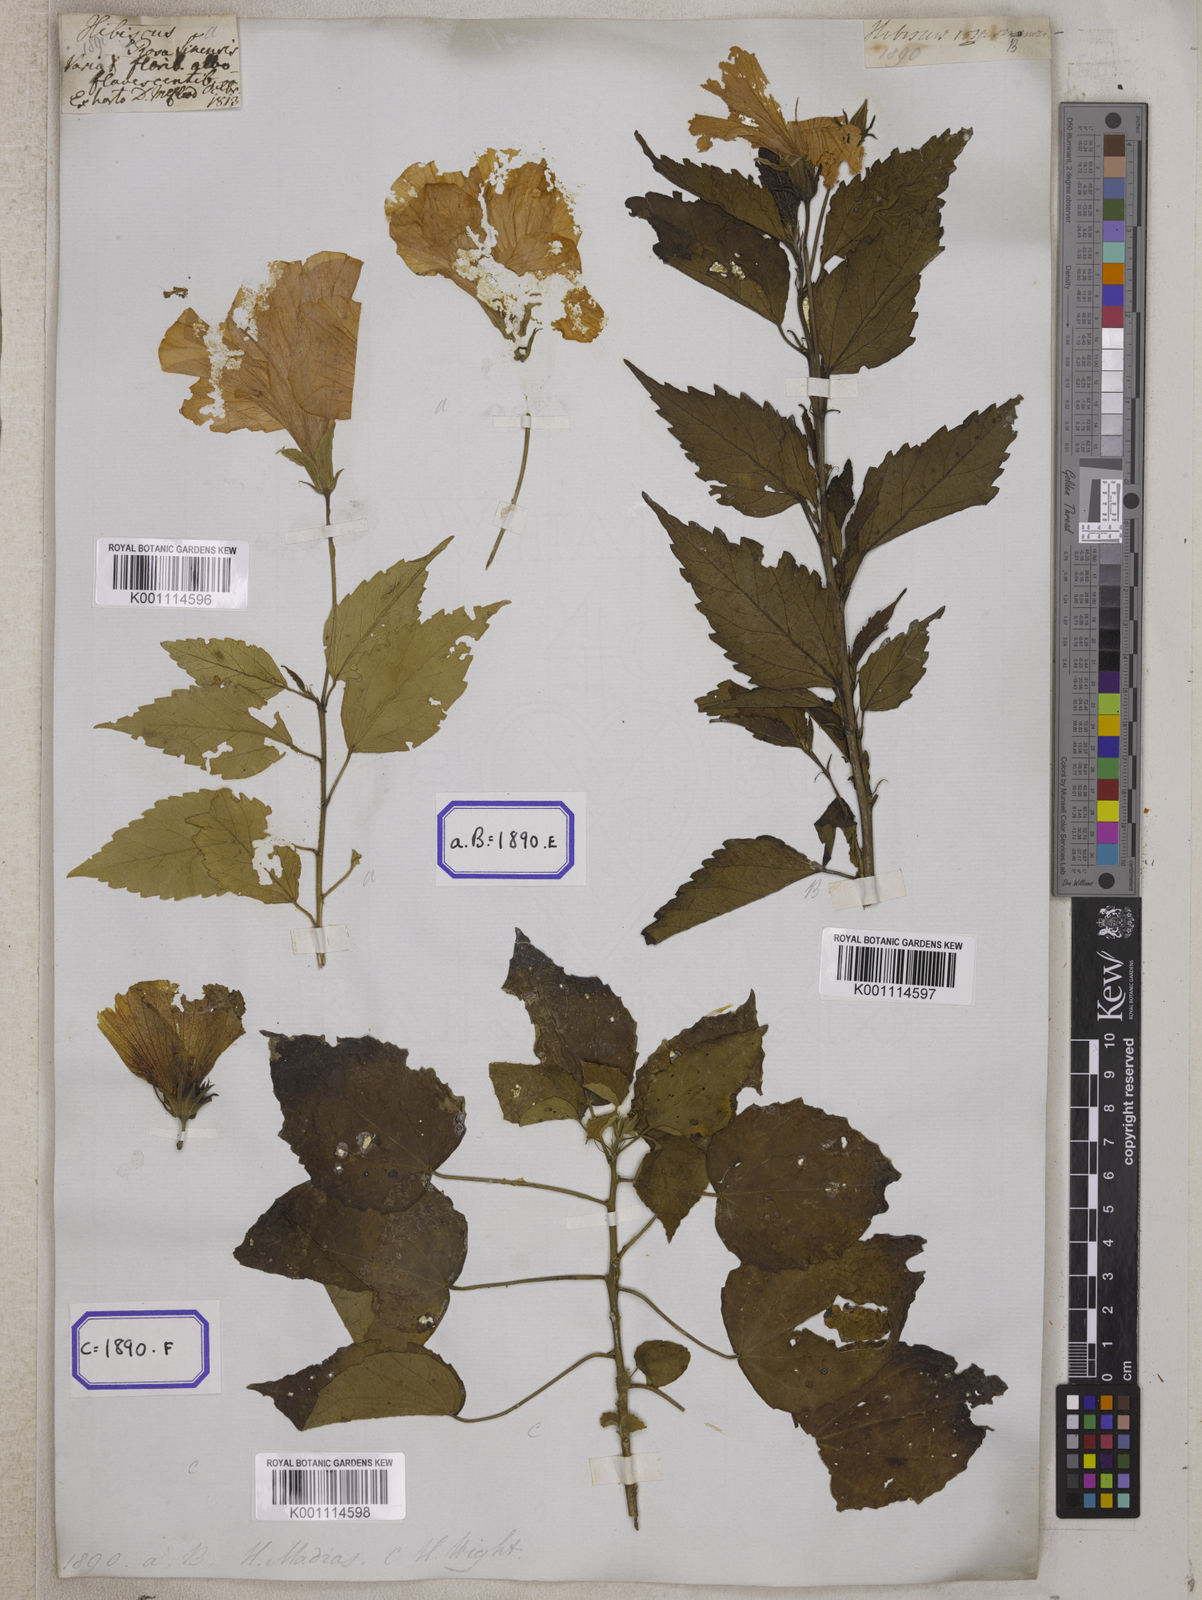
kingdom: Plantae
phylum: Tracheophyta
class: Magnoliopsida
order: Malvales
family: Malvaceae
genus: Hibiscus
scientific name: Hibiscus rosa-sinensis
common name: Hibiscus
